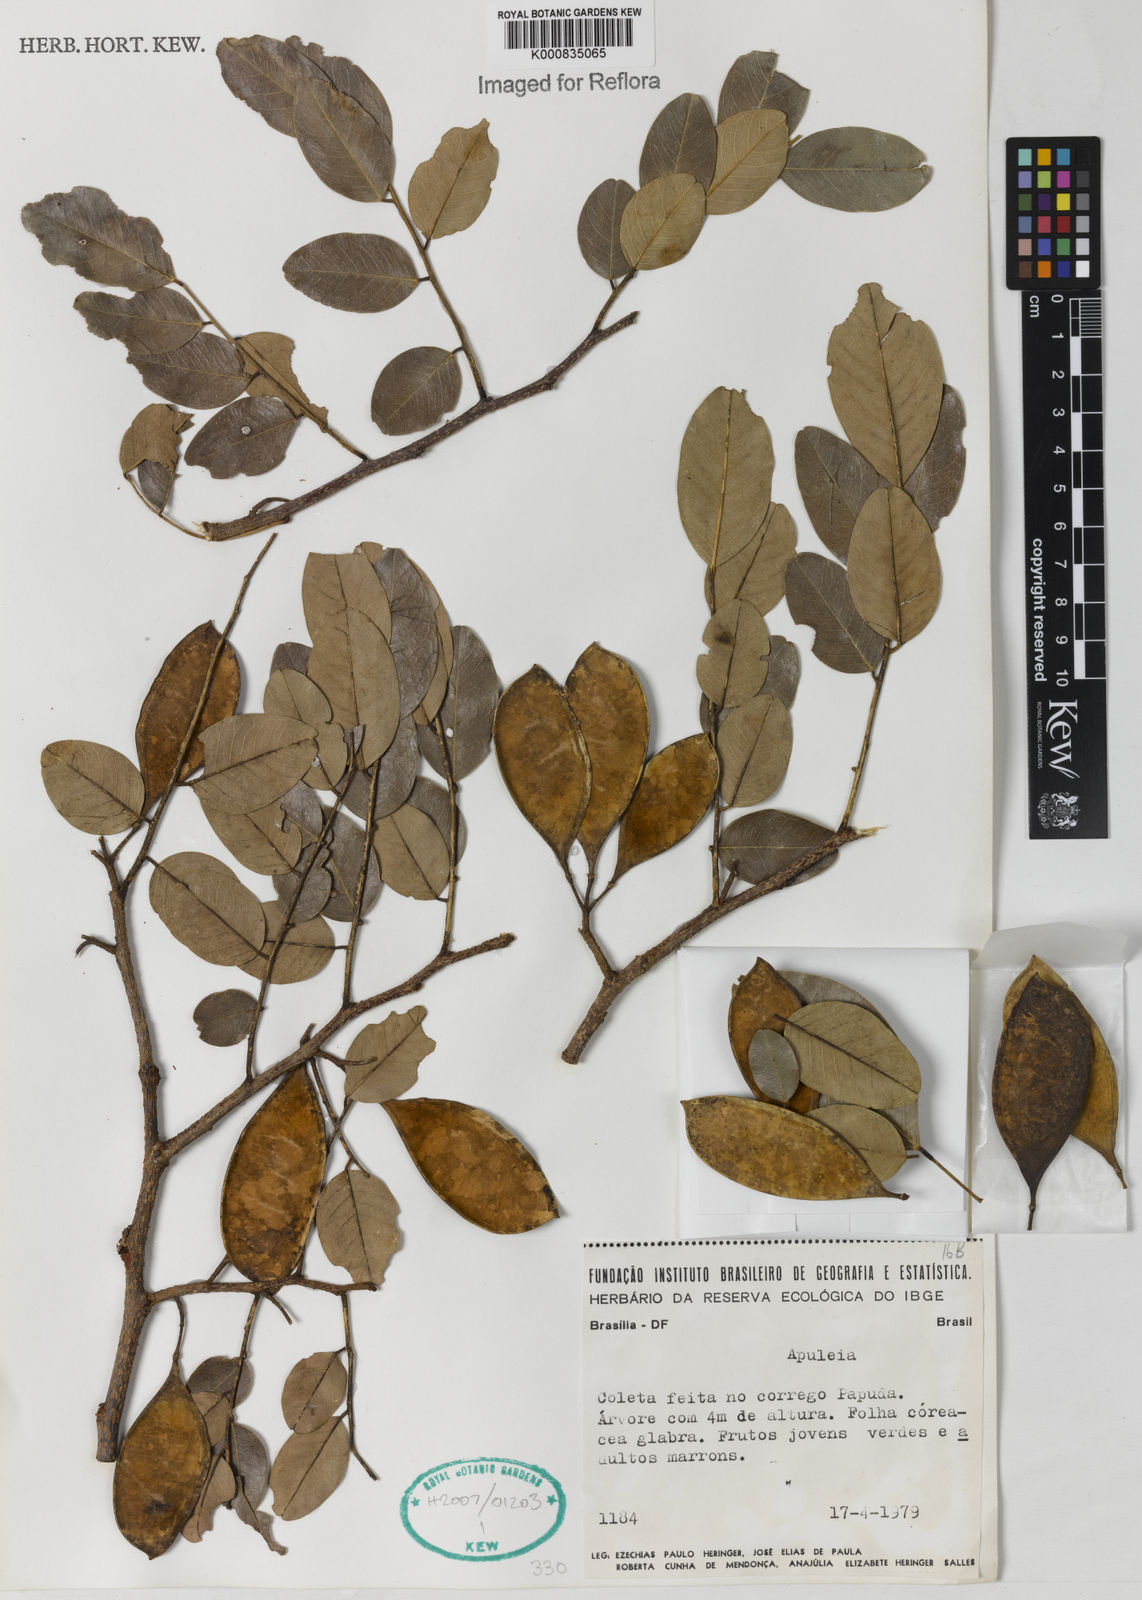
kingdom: Plantae
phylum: Tracheophyta
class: Magnoliopsida
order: Asterales
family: Asteraceae
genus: Berkheya
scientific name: Berkheya
